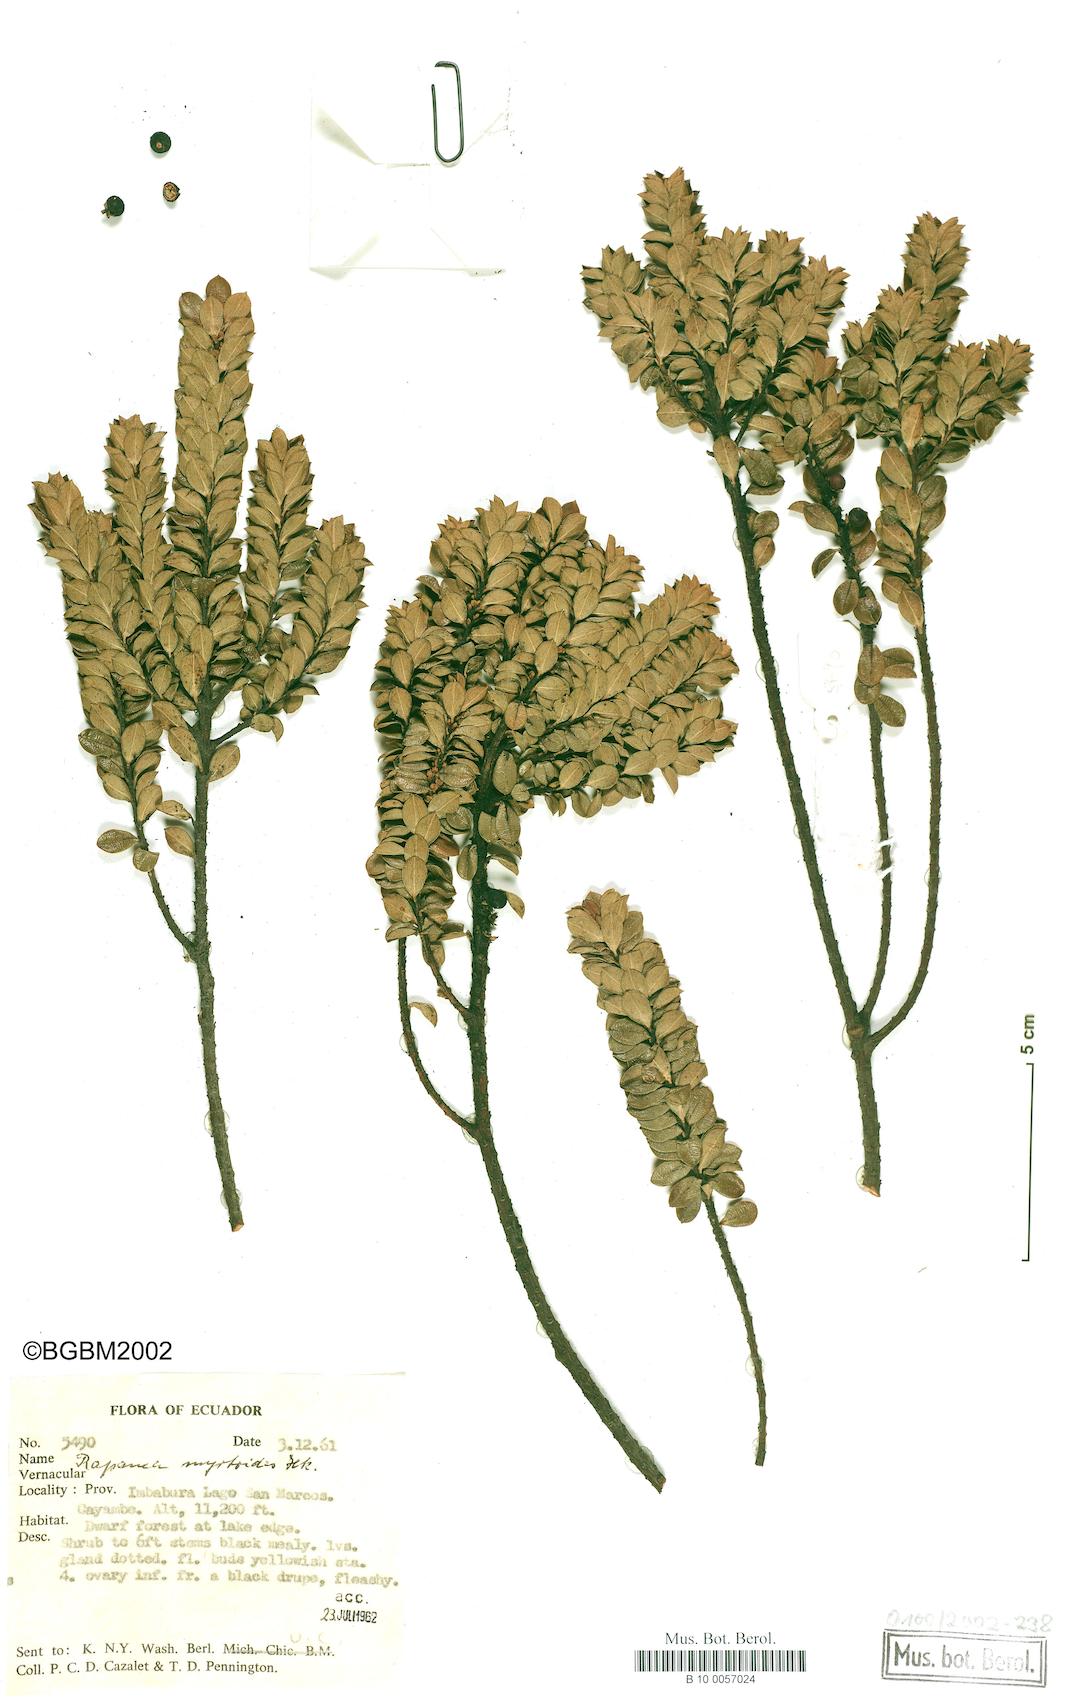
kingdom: Plantae
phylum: Tracheophyta
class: Magnoliopsida
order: Ericales
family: Primulaceae
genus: Myrsine
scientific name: Myrsine coriacea
